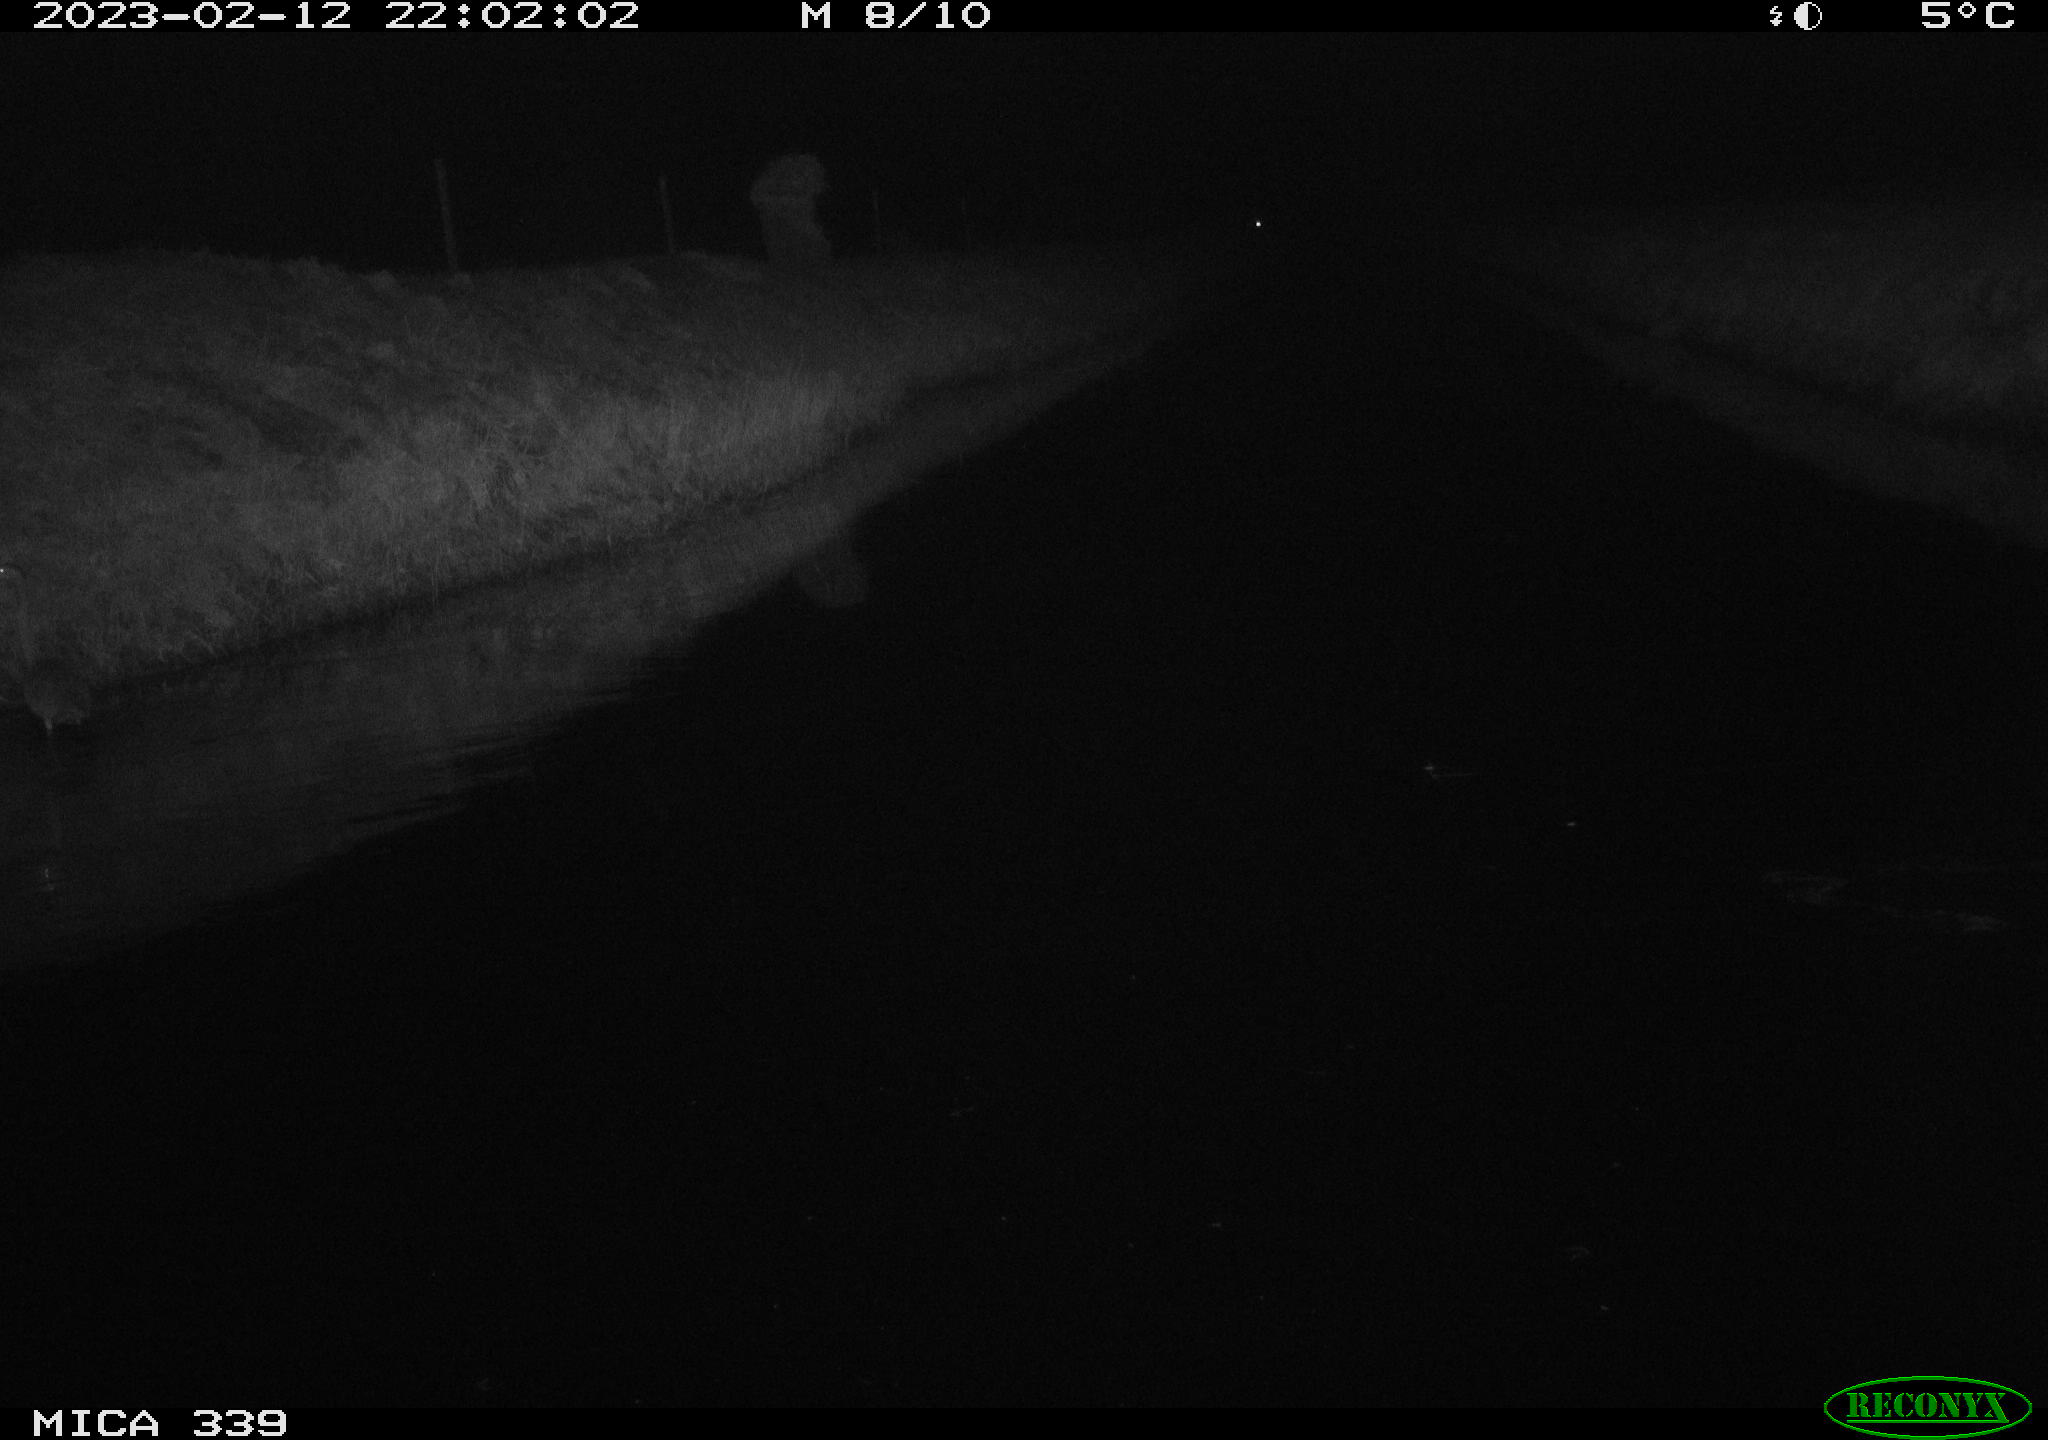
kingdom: Animalia
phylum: Chordata
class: Aves
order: Pelecaniformes
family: Ardeidae
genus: Ardea
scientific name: Ardea cinerea
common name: Grey heron
